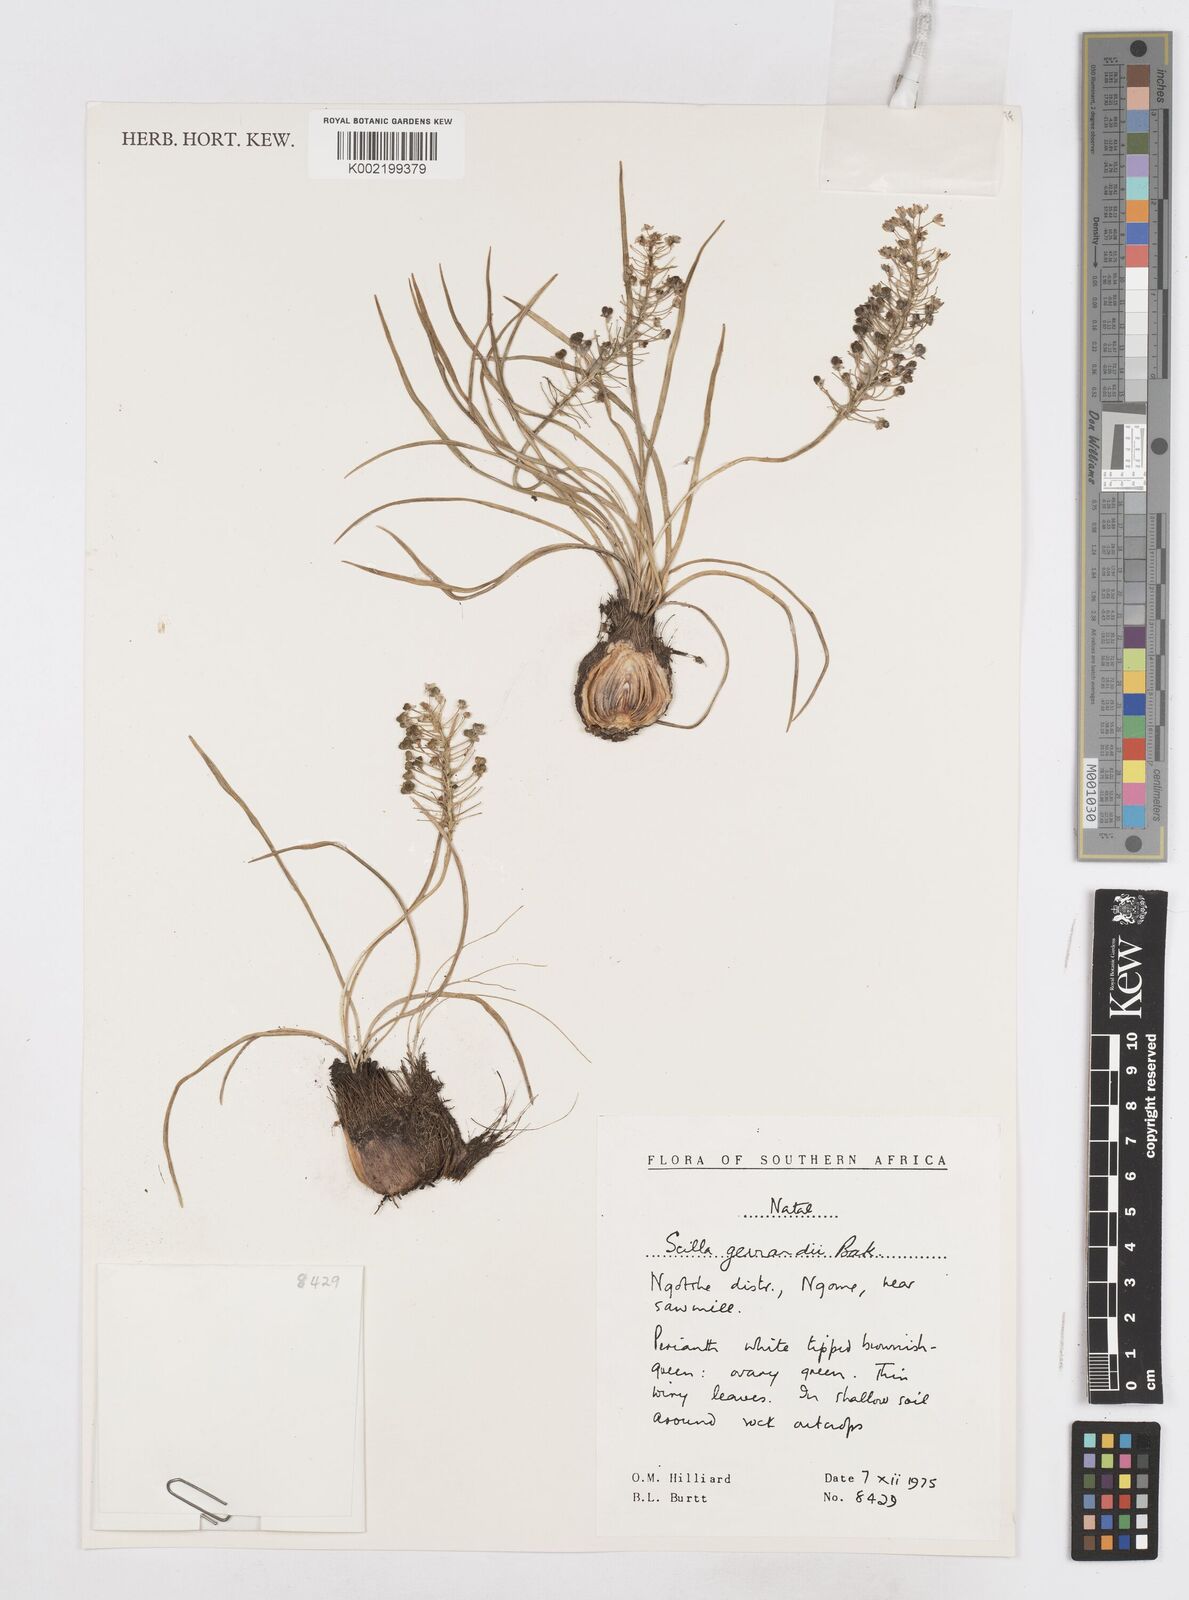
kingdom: Plantae
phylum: Tracheophyta
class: Liliopsida
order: Asparagales
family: Asparagaceae
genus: Schizocarphus
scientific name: Schizocarphus nervosus
